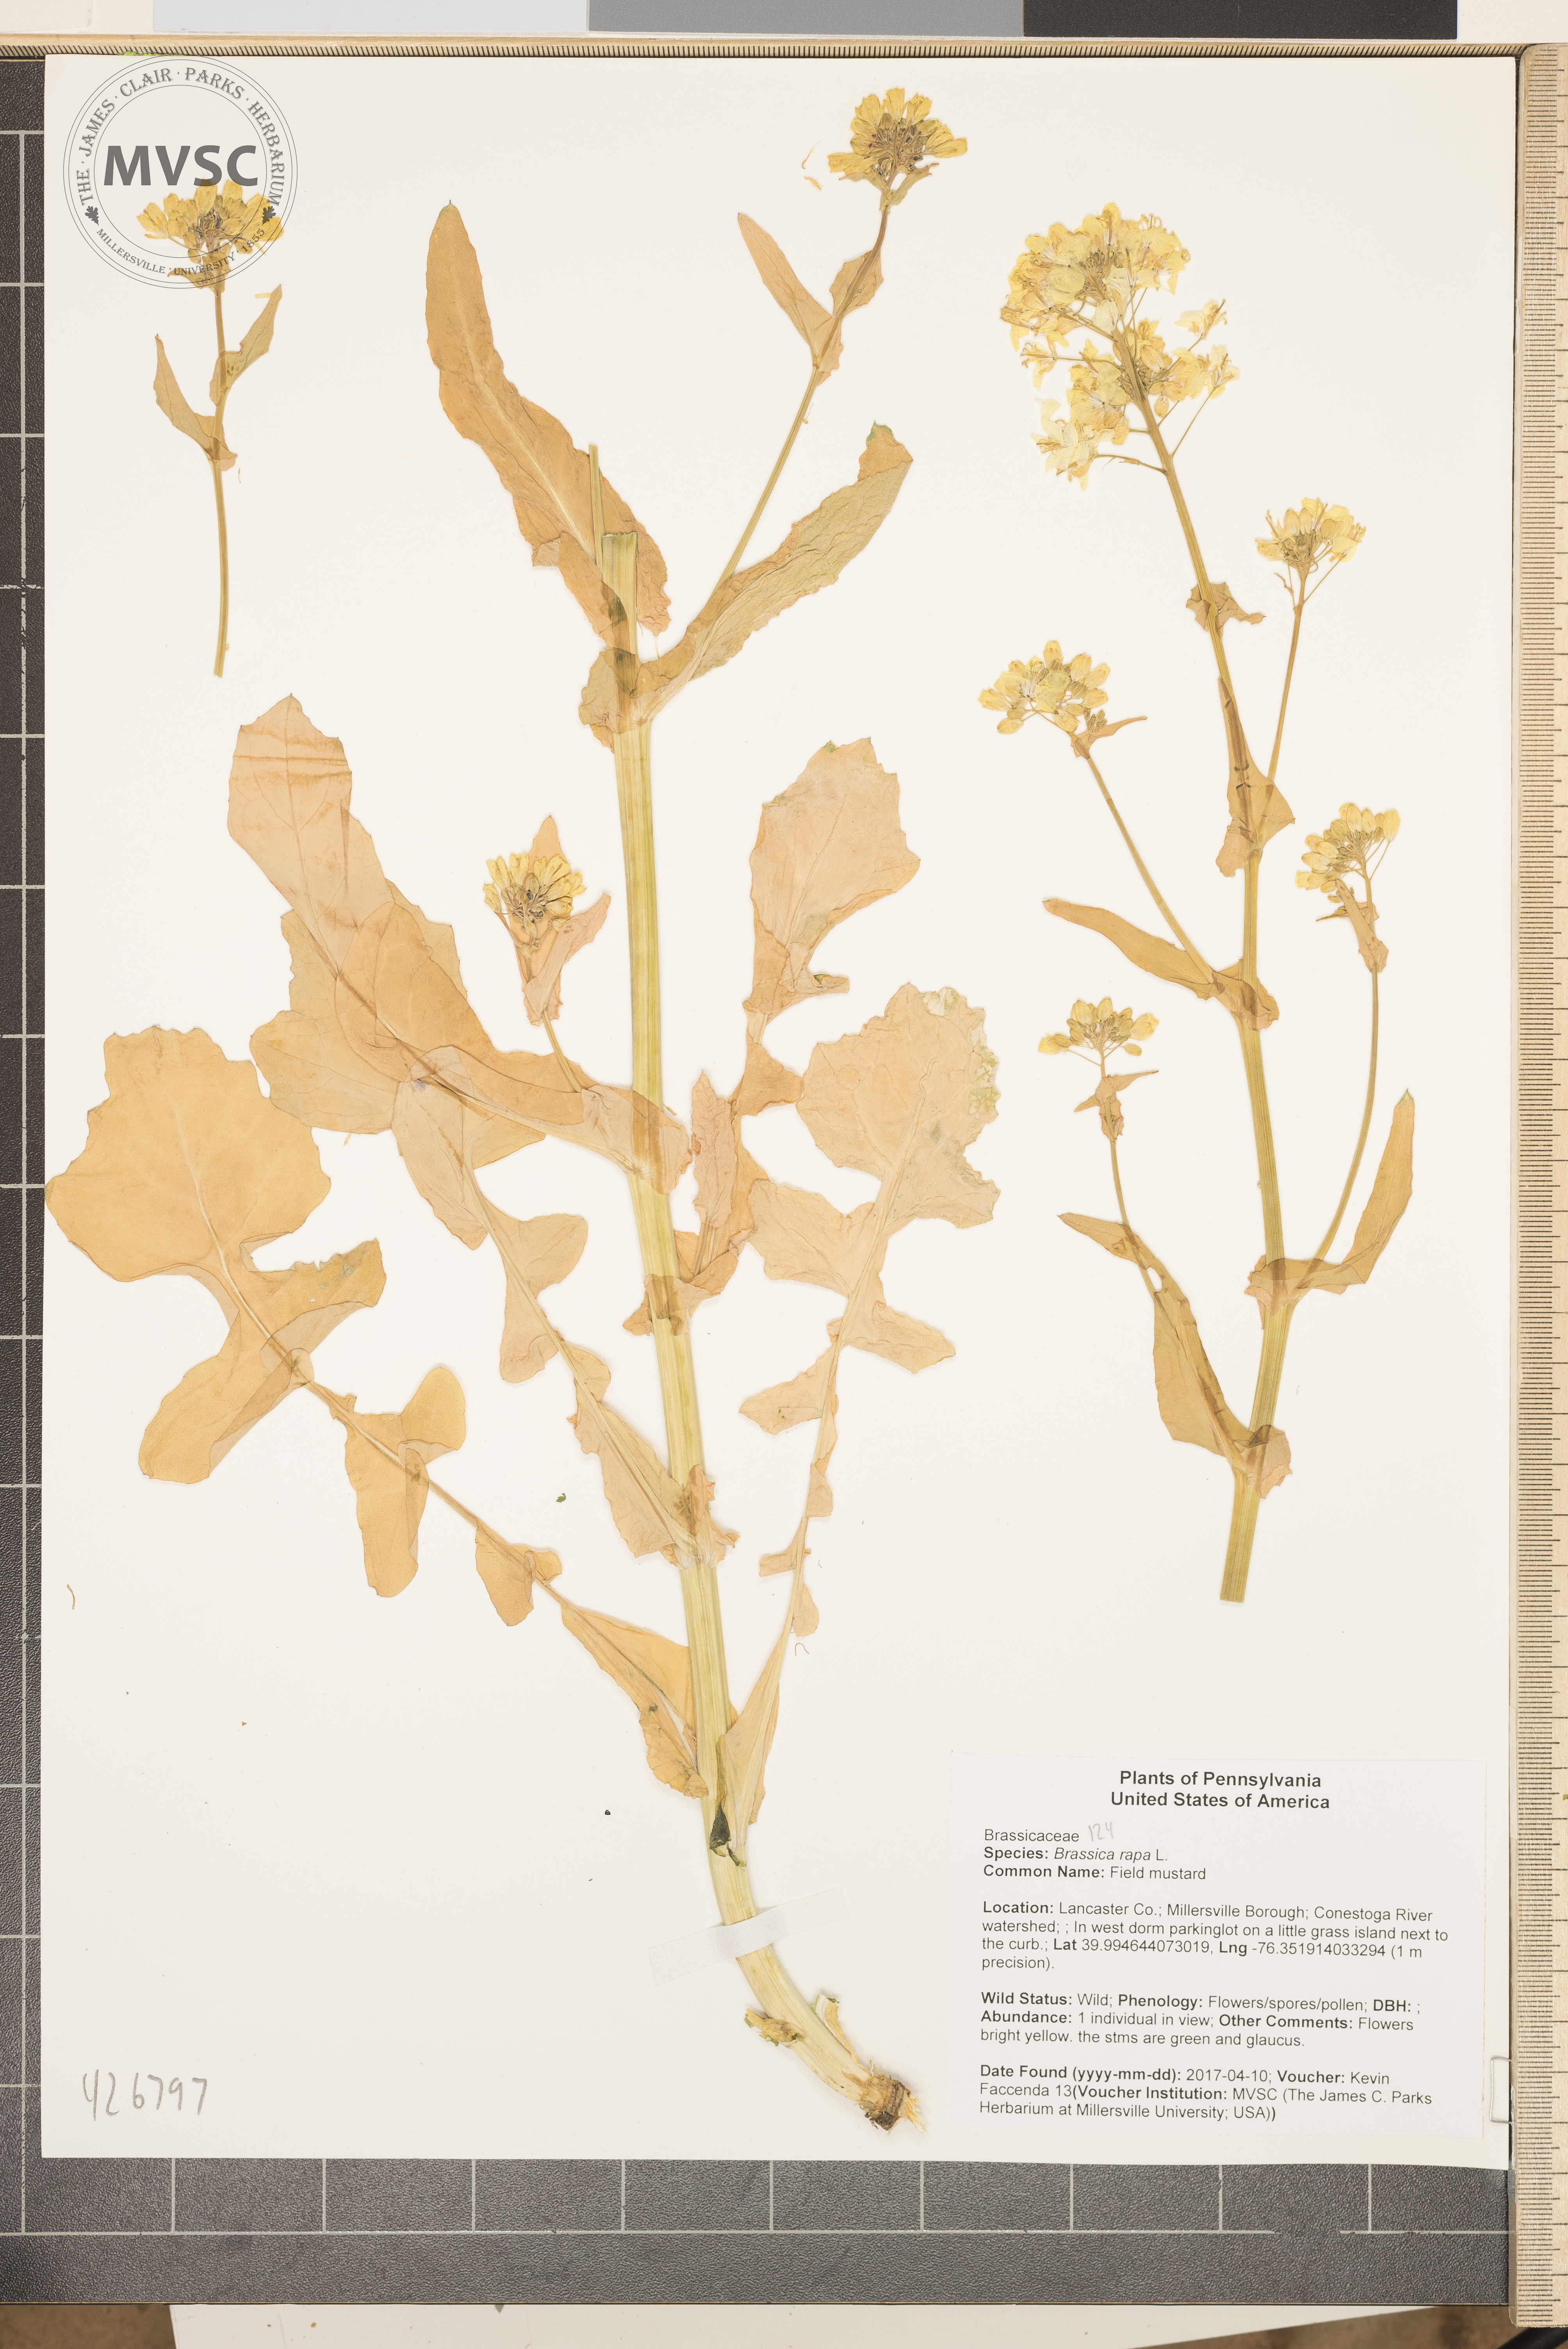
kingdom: Plantae
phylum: Tracheophyta
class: Magnoliopsida
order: Brassicales
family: Brassicaceae
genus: Brassica
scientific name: Brassica rapa
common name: Field mustard
